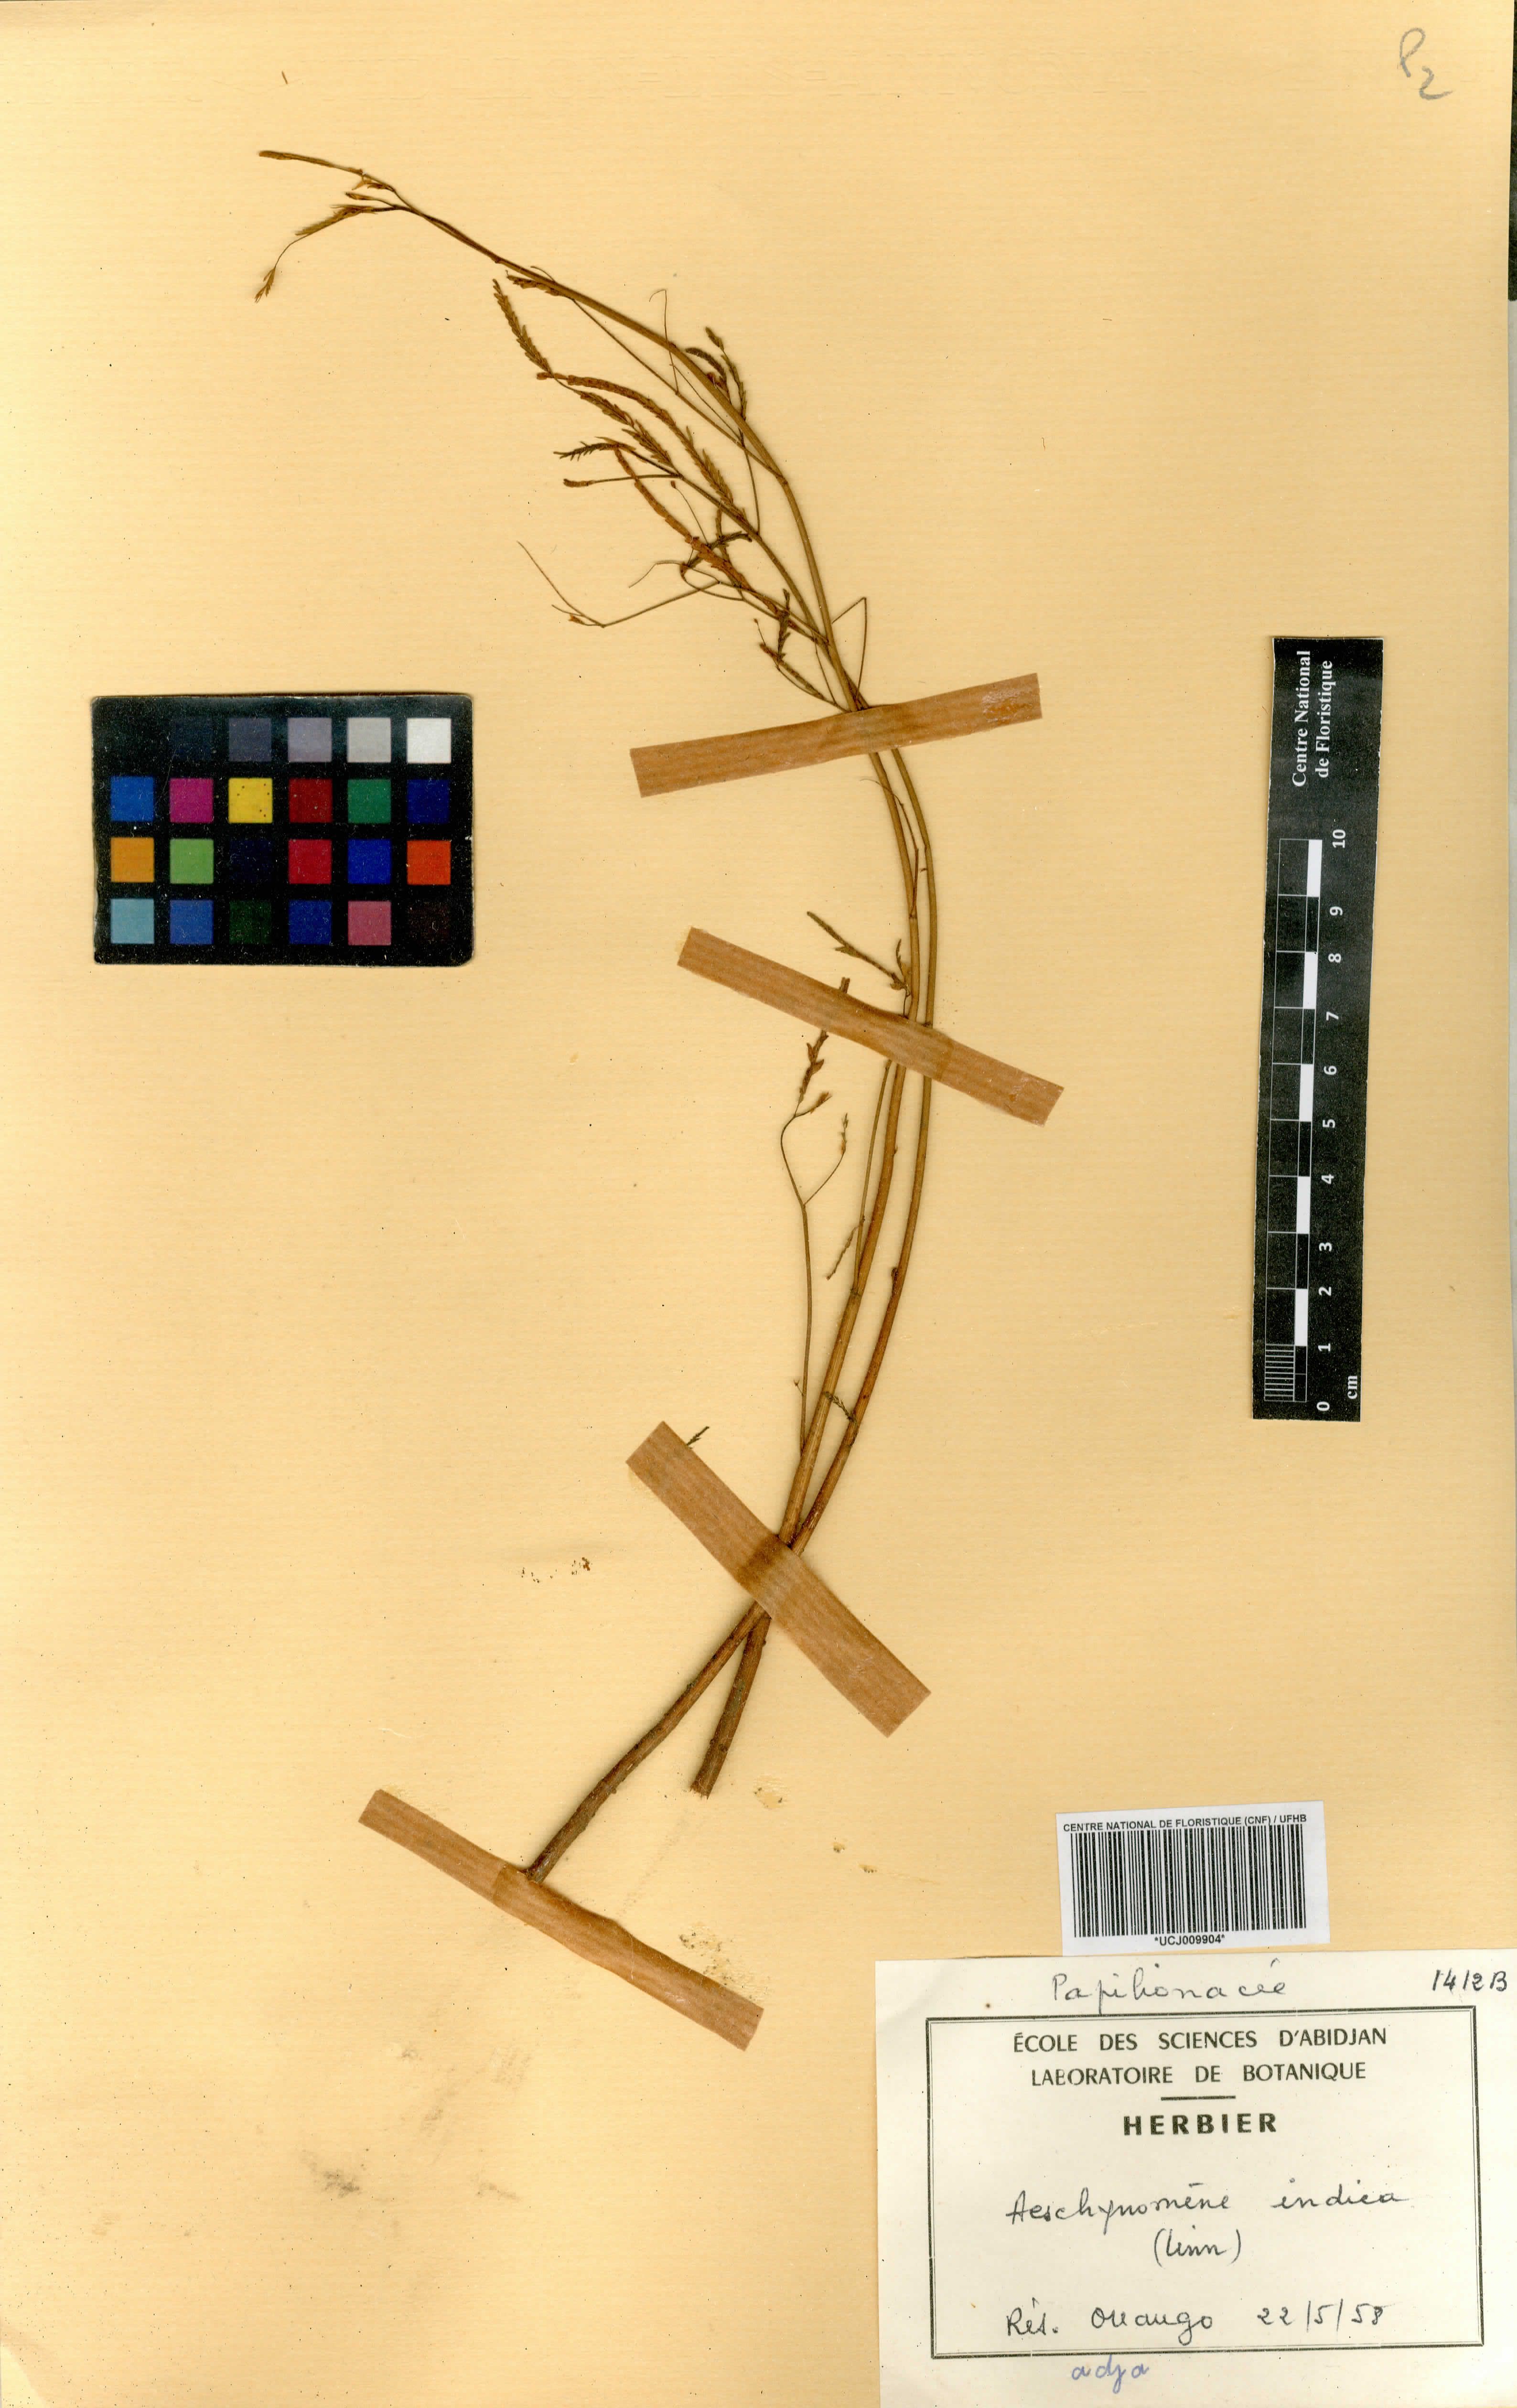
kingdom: Plantae
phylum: Tracheophyta
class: Magnoliopsida
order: Fabales
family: Fabaceae
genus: Aeschynomene
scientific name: Aeschynomene indica
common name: Indian jointvetch
